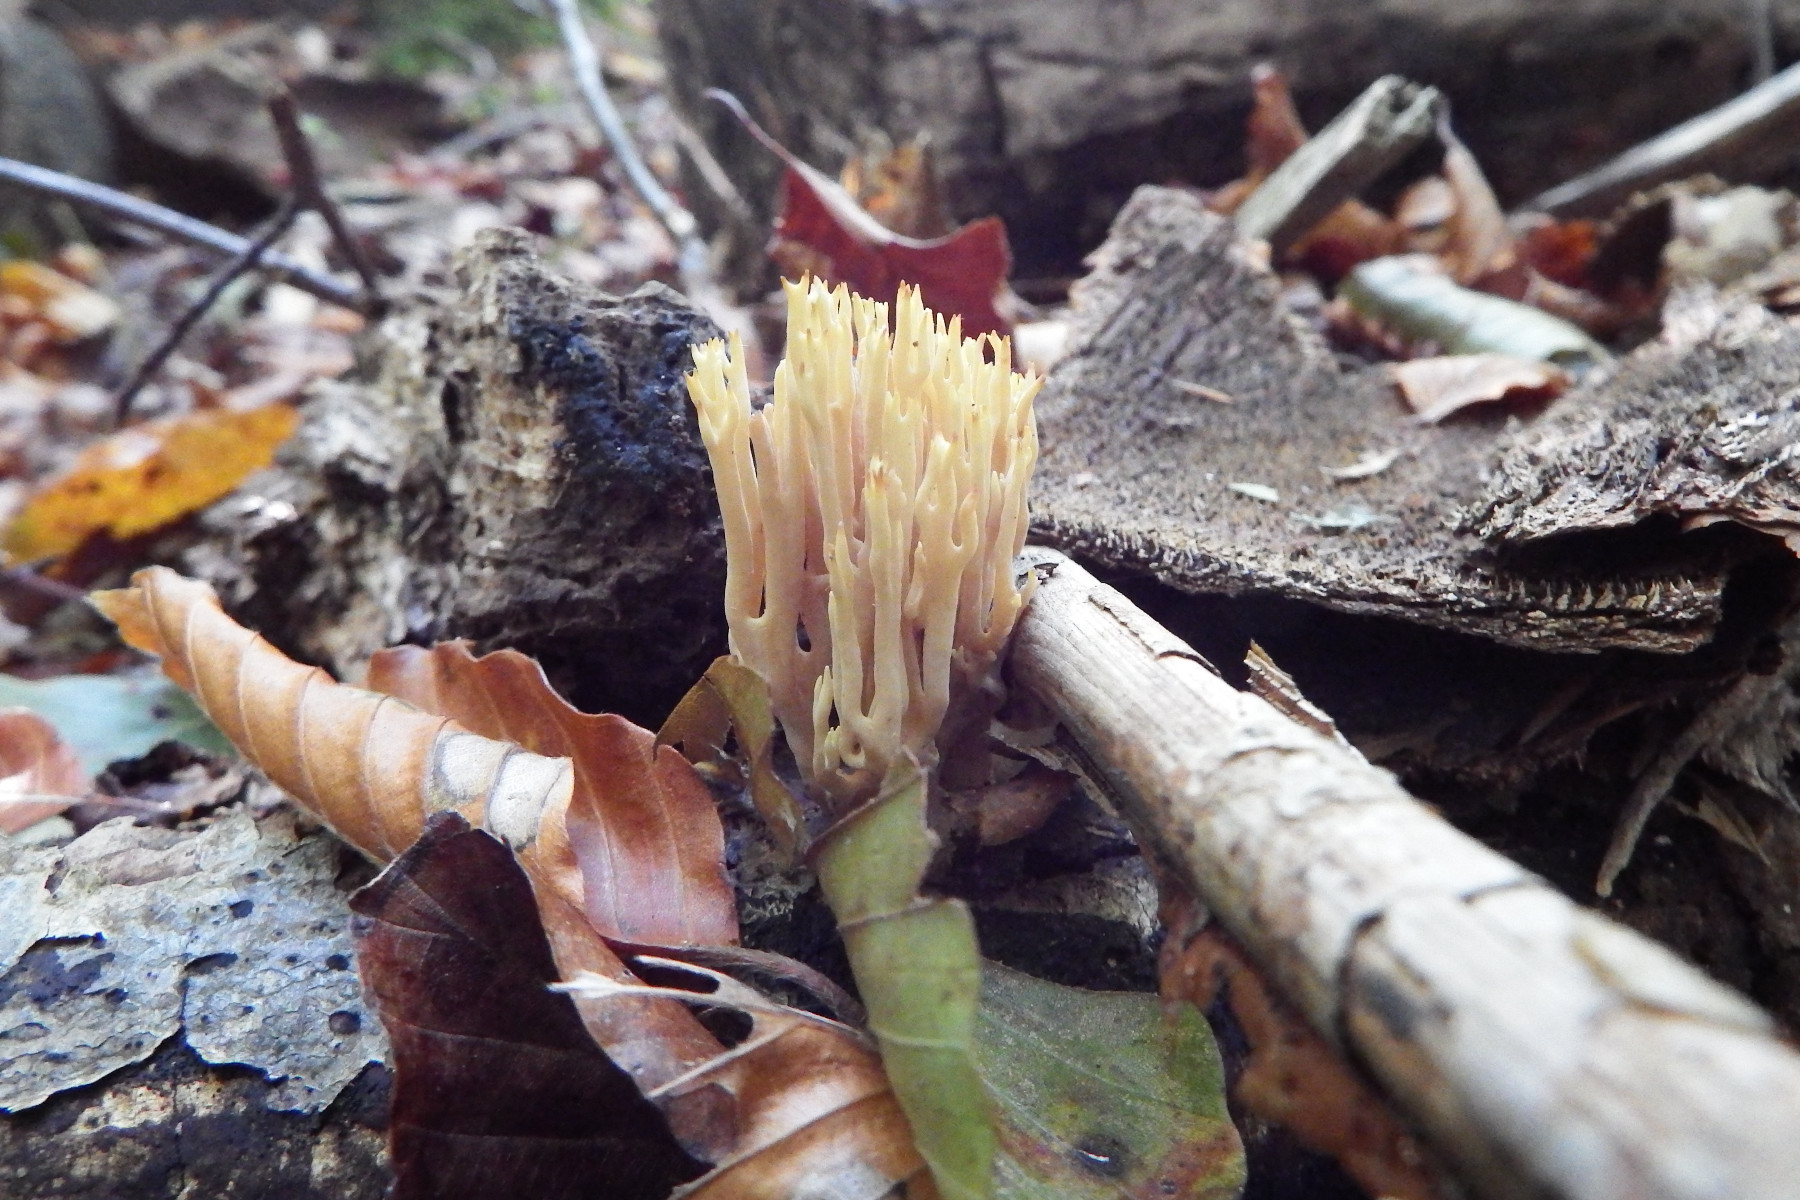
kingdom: Fungi
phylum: Basidiomycota
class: Agaricomycetes
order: Gomphales
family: Gomphaceae
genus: Ramaria
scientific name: Ramaria stricta
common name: rank koralsvamp
